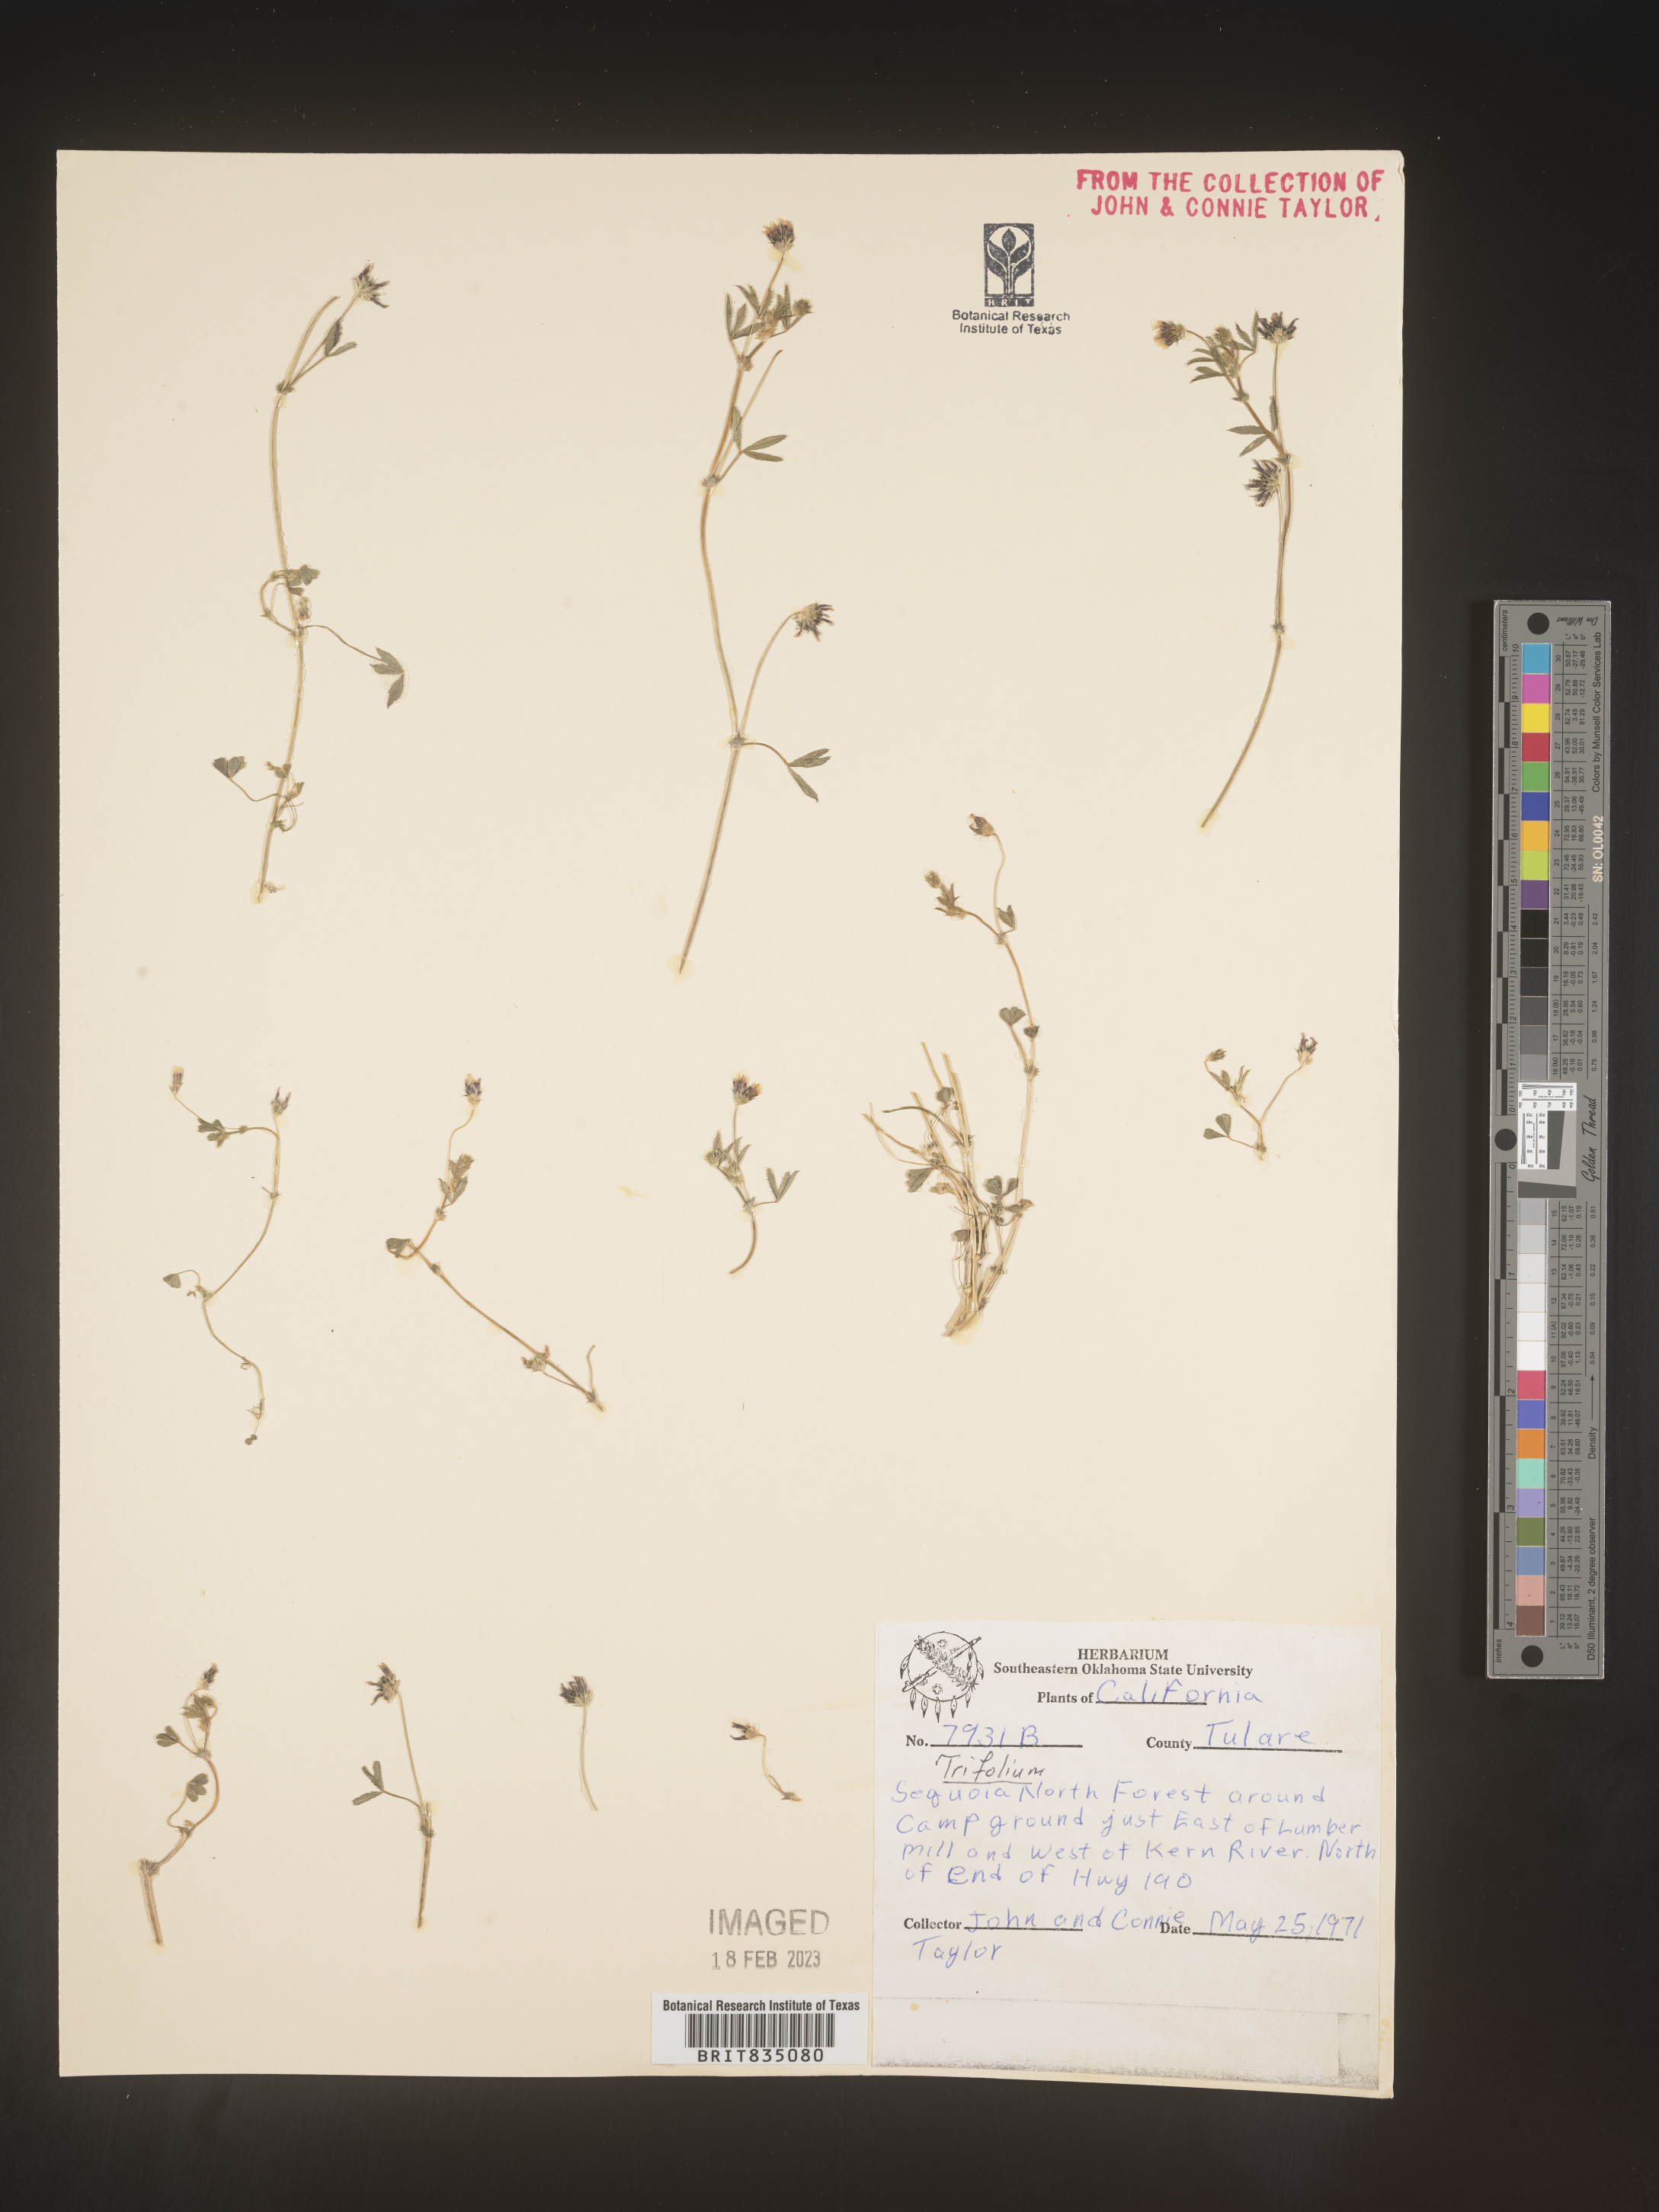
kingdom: Plantae
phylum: Tracheophyta
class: Magnoliopsida
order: Fabales
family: Fabaceae
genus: Trifolium
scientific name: Trifolium
